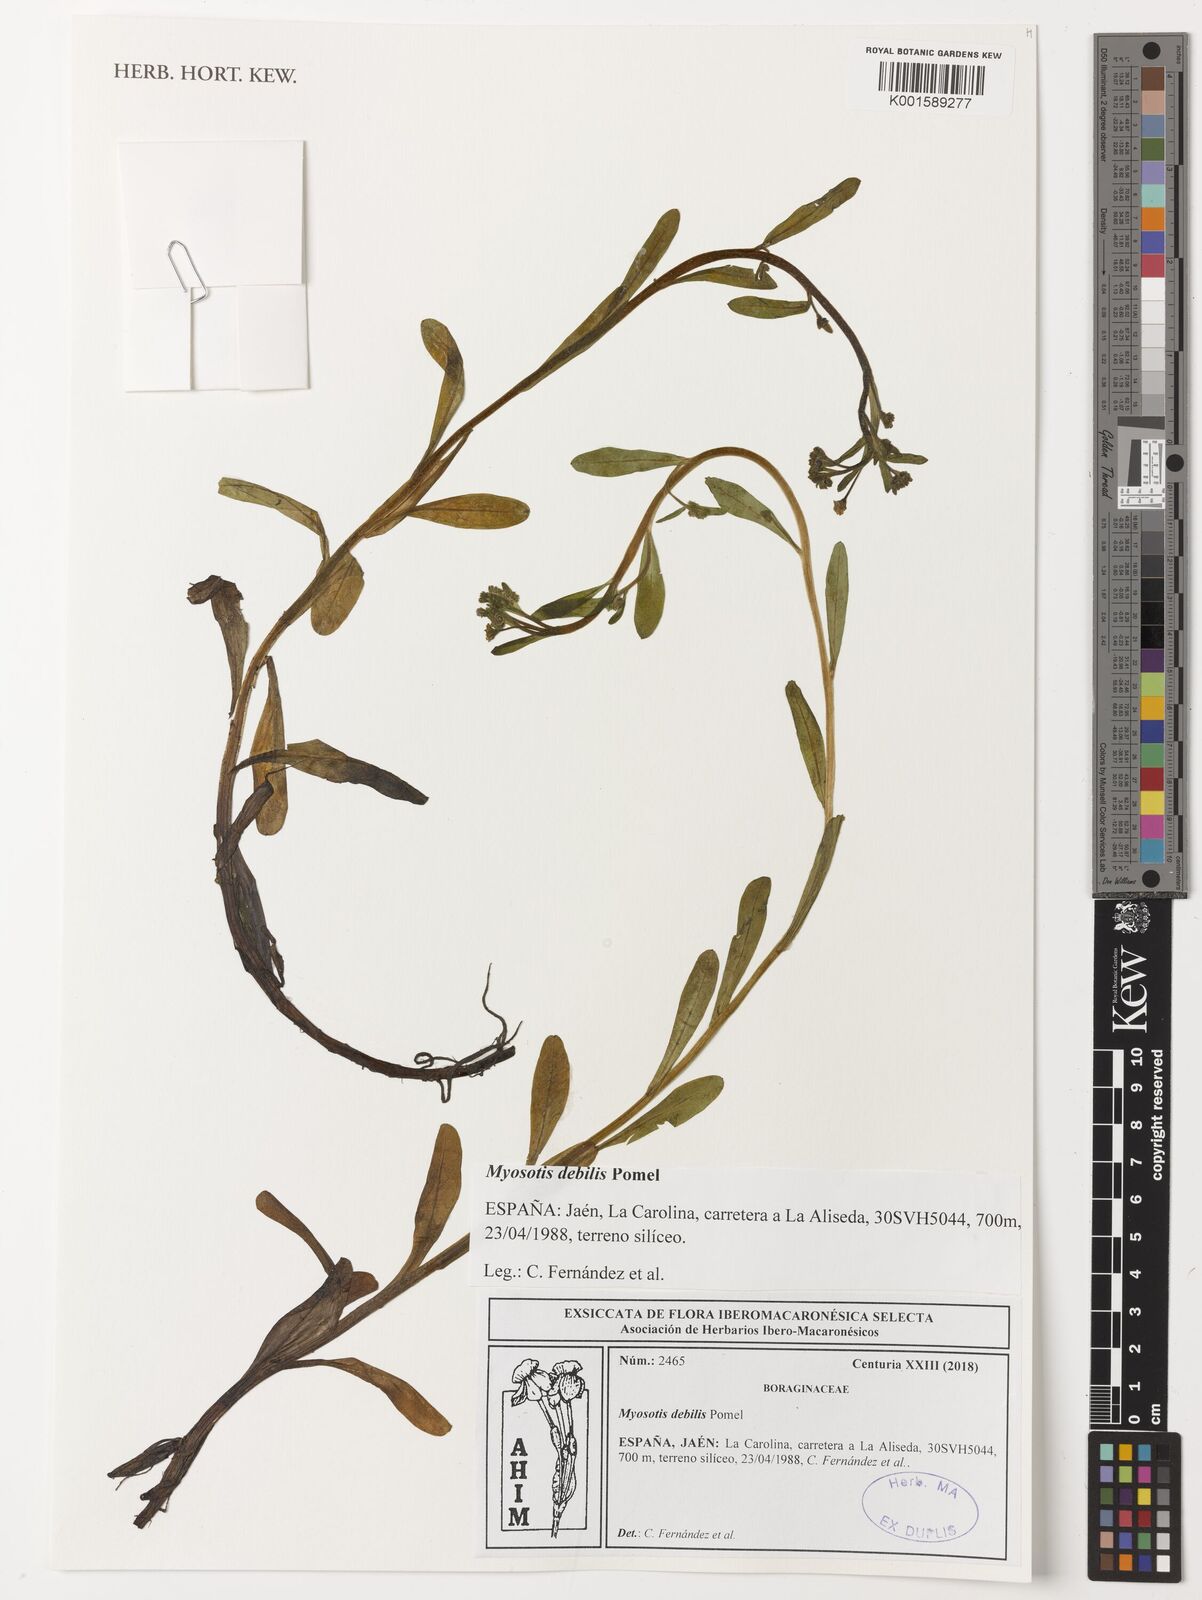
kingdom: Plantae
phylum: Tracheophyta
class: Magnoliopsida
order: Boraginales
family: Boraginaceae
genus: Myosotis
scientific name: Myosotis debilis
